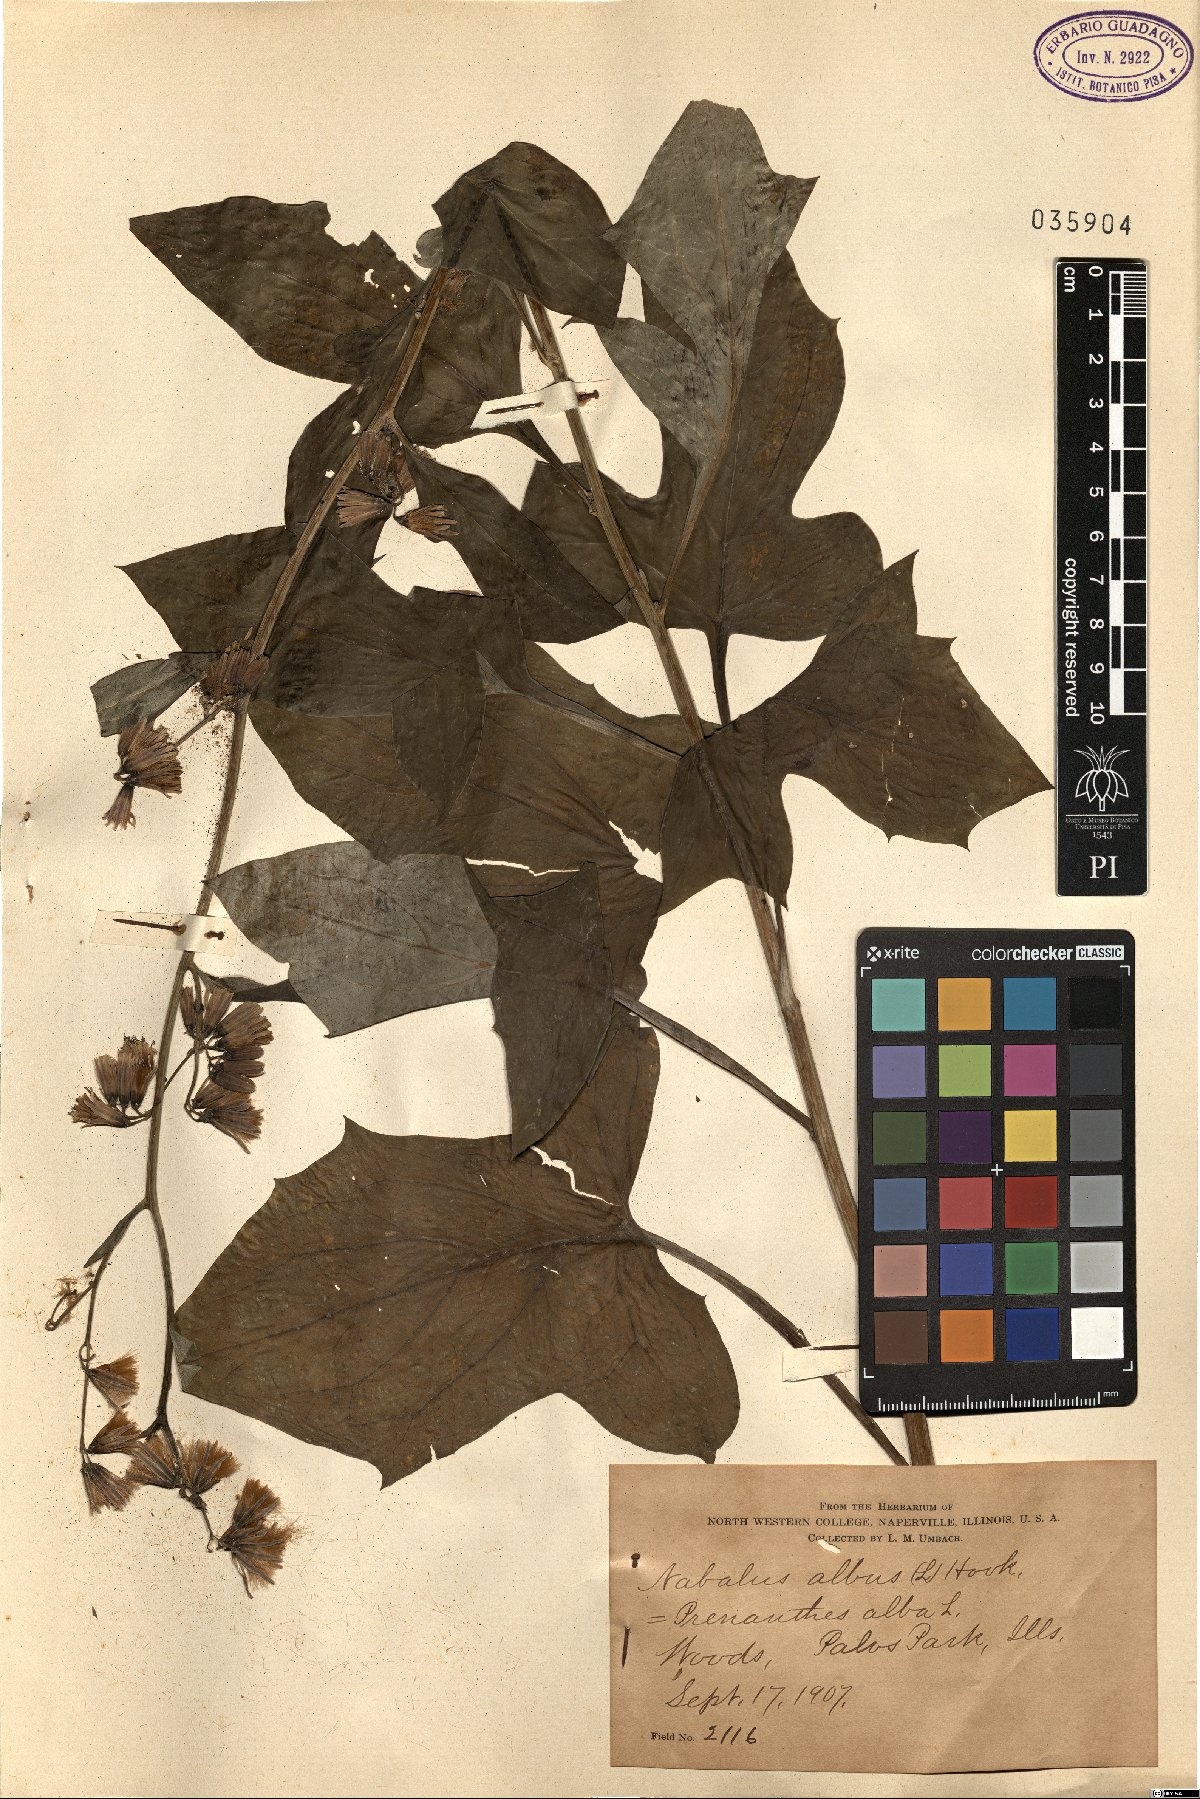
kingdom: Plantae
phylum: Tracheophyta
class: Magnoliopsida
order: Asterales
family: Asteraceae
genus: Nabalus
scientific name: Nabalus albus
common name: White rattlesnakeroot
